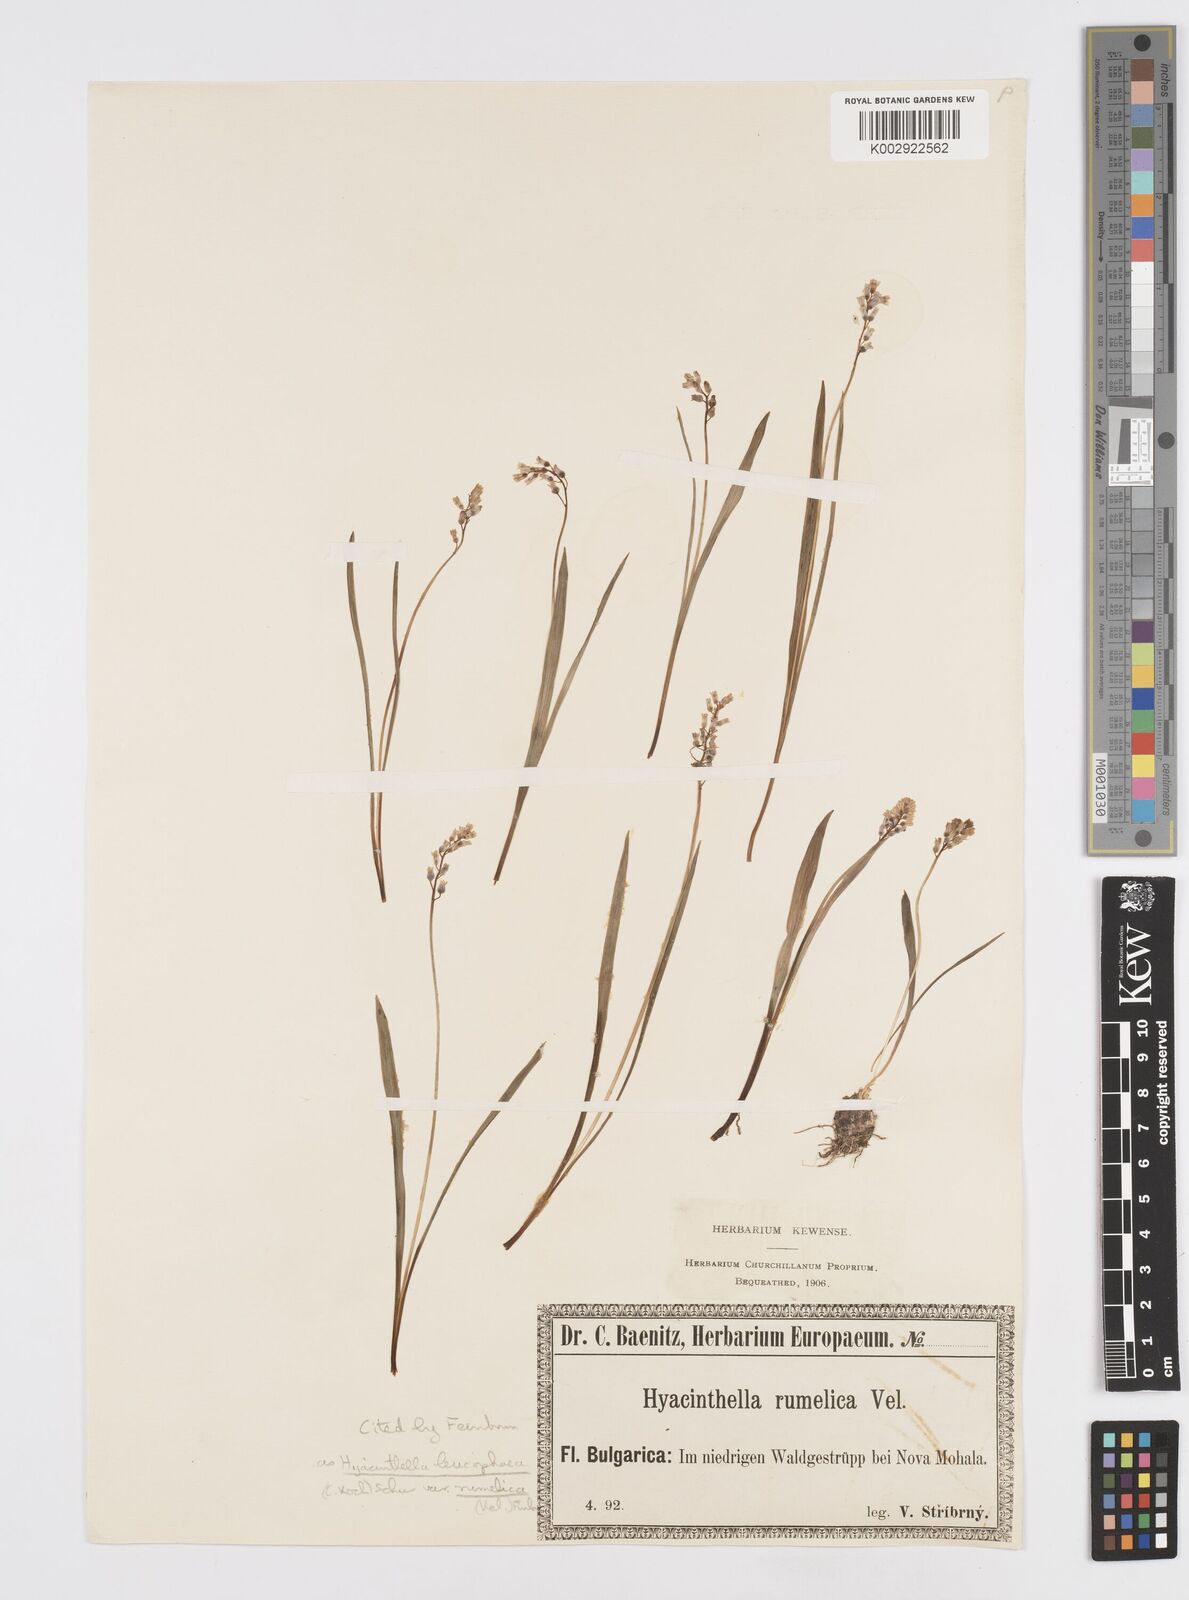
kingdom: Plantae
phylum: Tracheophyta
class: Liliopsida
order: Asparagales
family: Asparagaceae
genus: Hyacinthella
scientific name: Hyacinthella leucophaea
